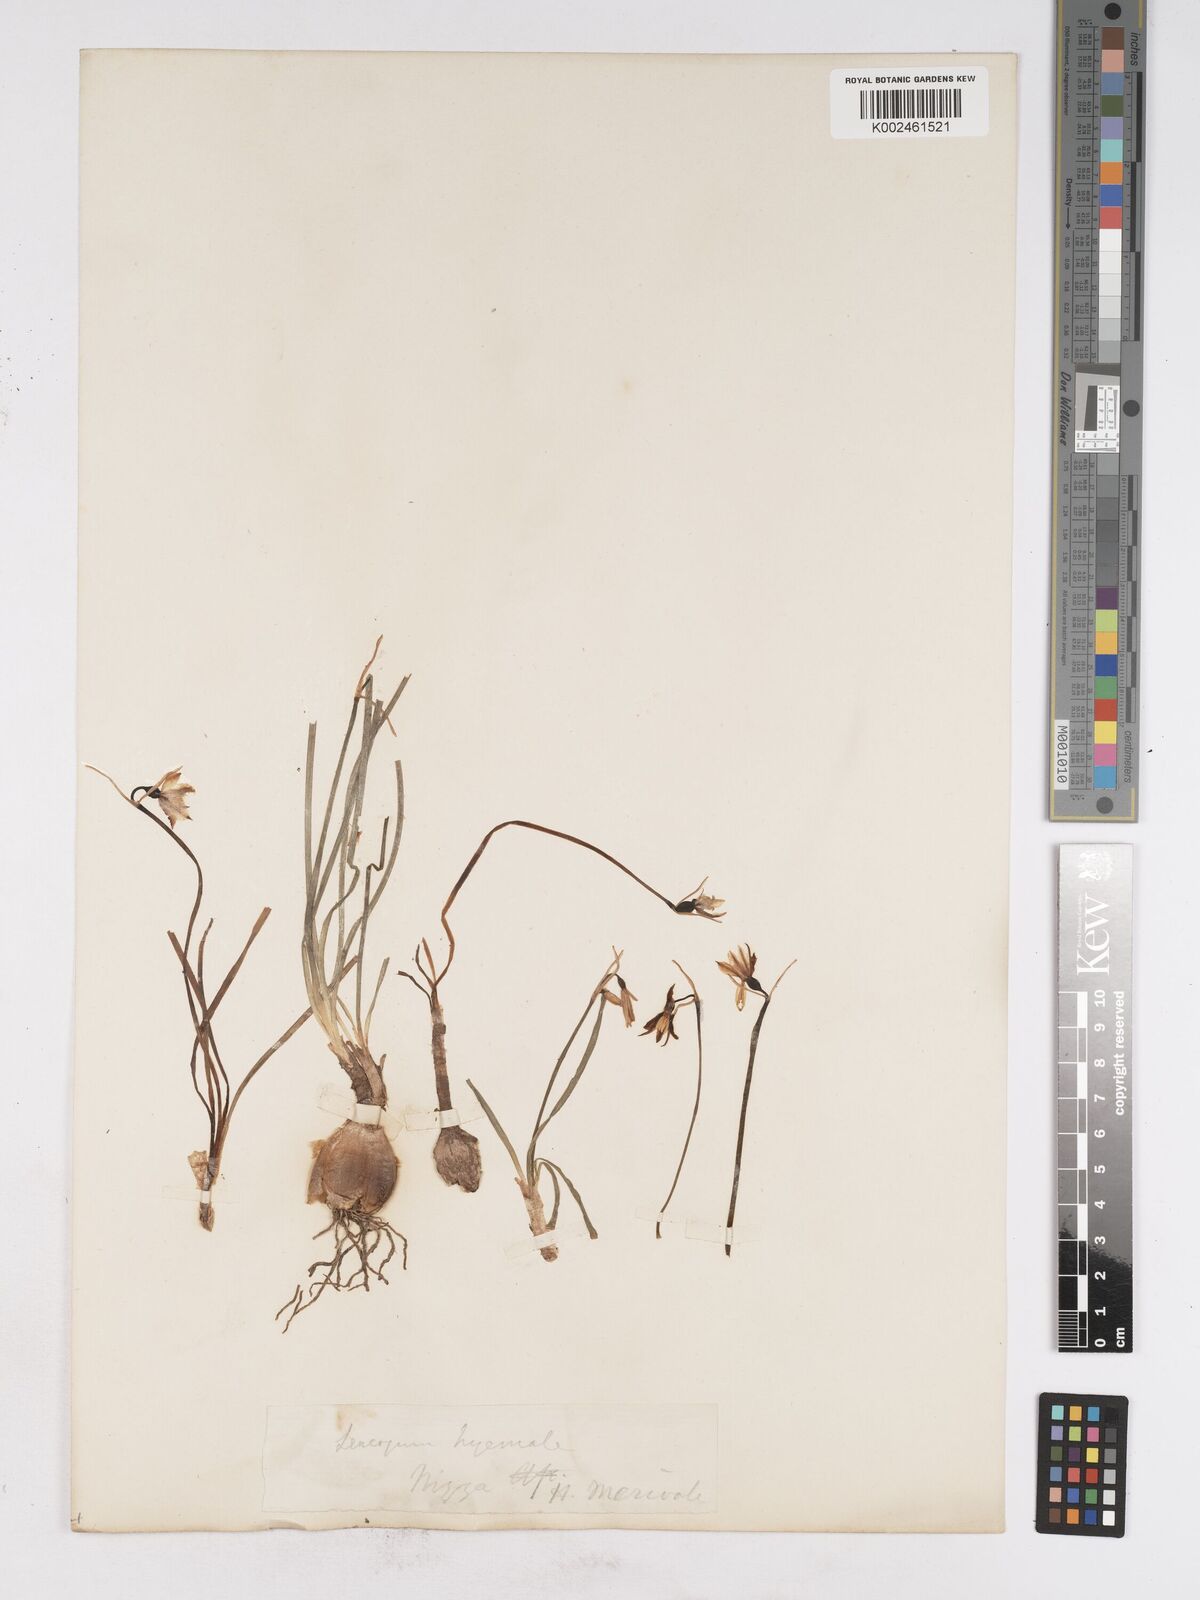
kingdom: Plantae
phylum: Tracheophyta
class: Liliopsida
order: Asparagales
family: Amaryllidaceae
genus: Leucojum
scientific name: Leucojum vernum
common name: Spring snowflake
